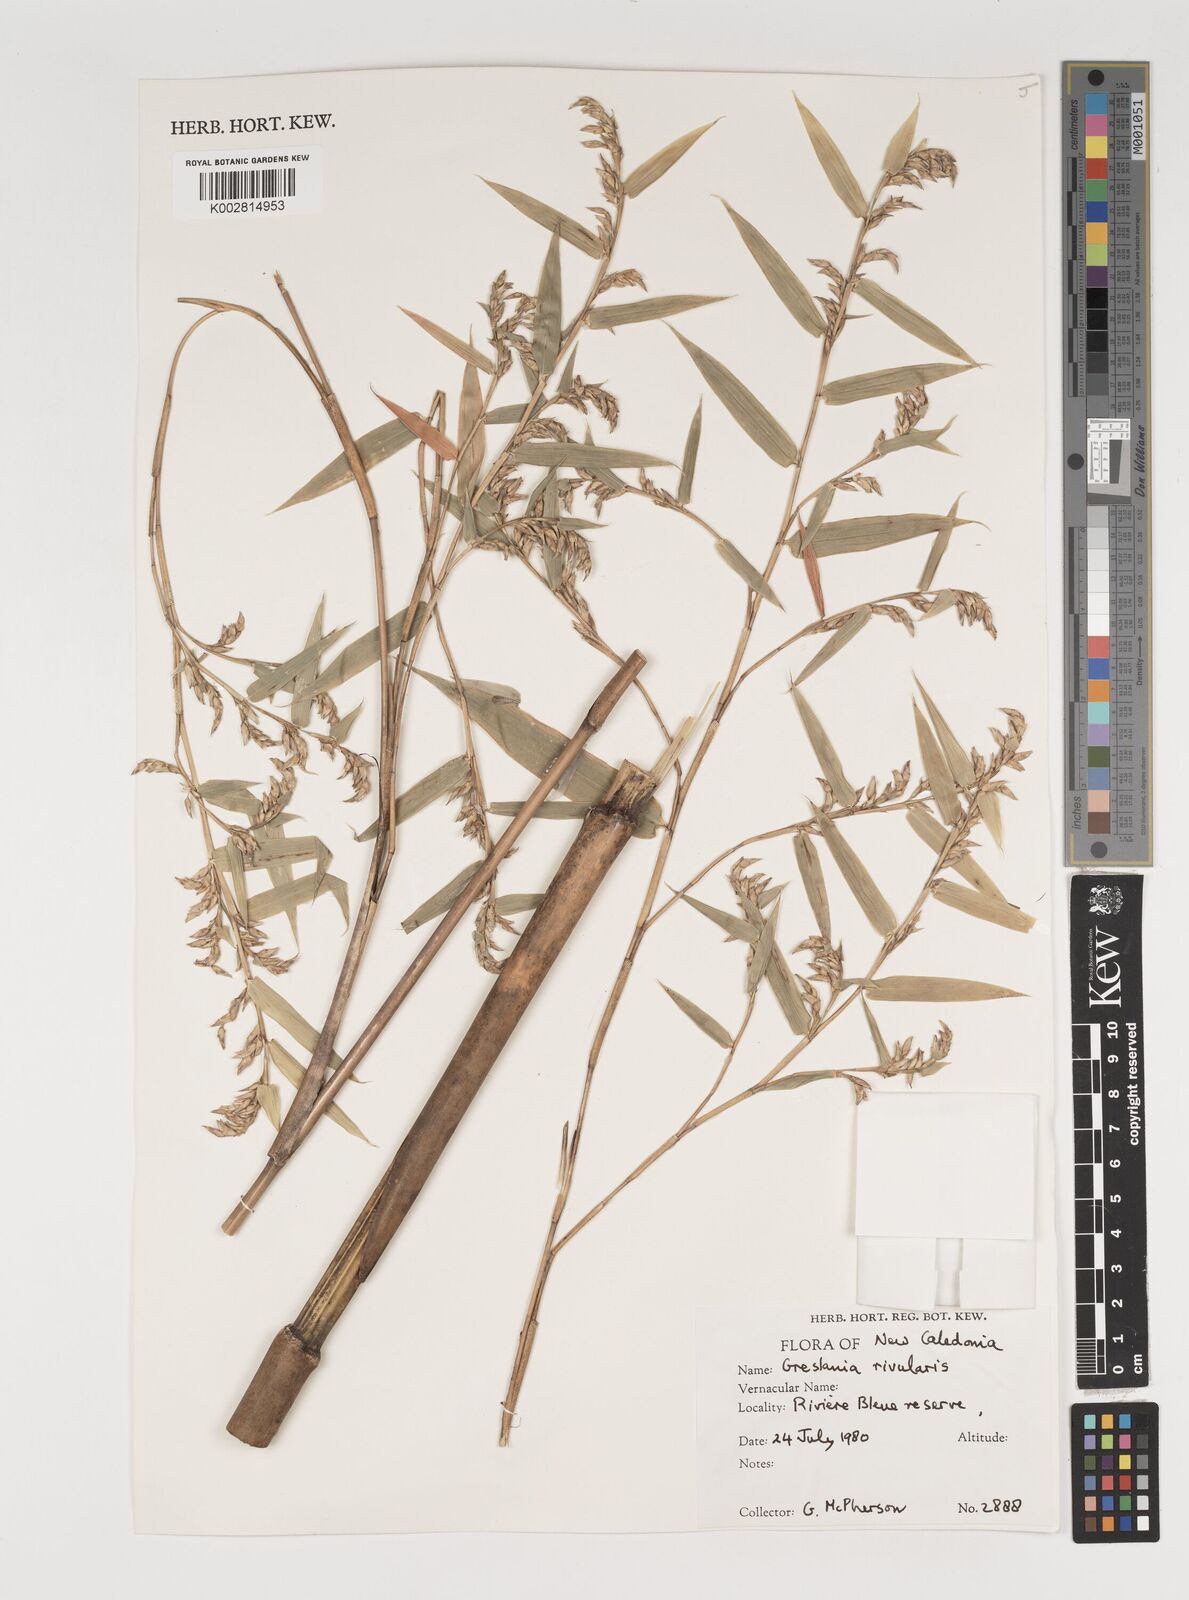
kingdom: Plantae
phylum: Tracheophyta
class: Liliopsida
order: Poales
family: Poaceae
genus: Greslania
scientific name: Greslania rivularis
